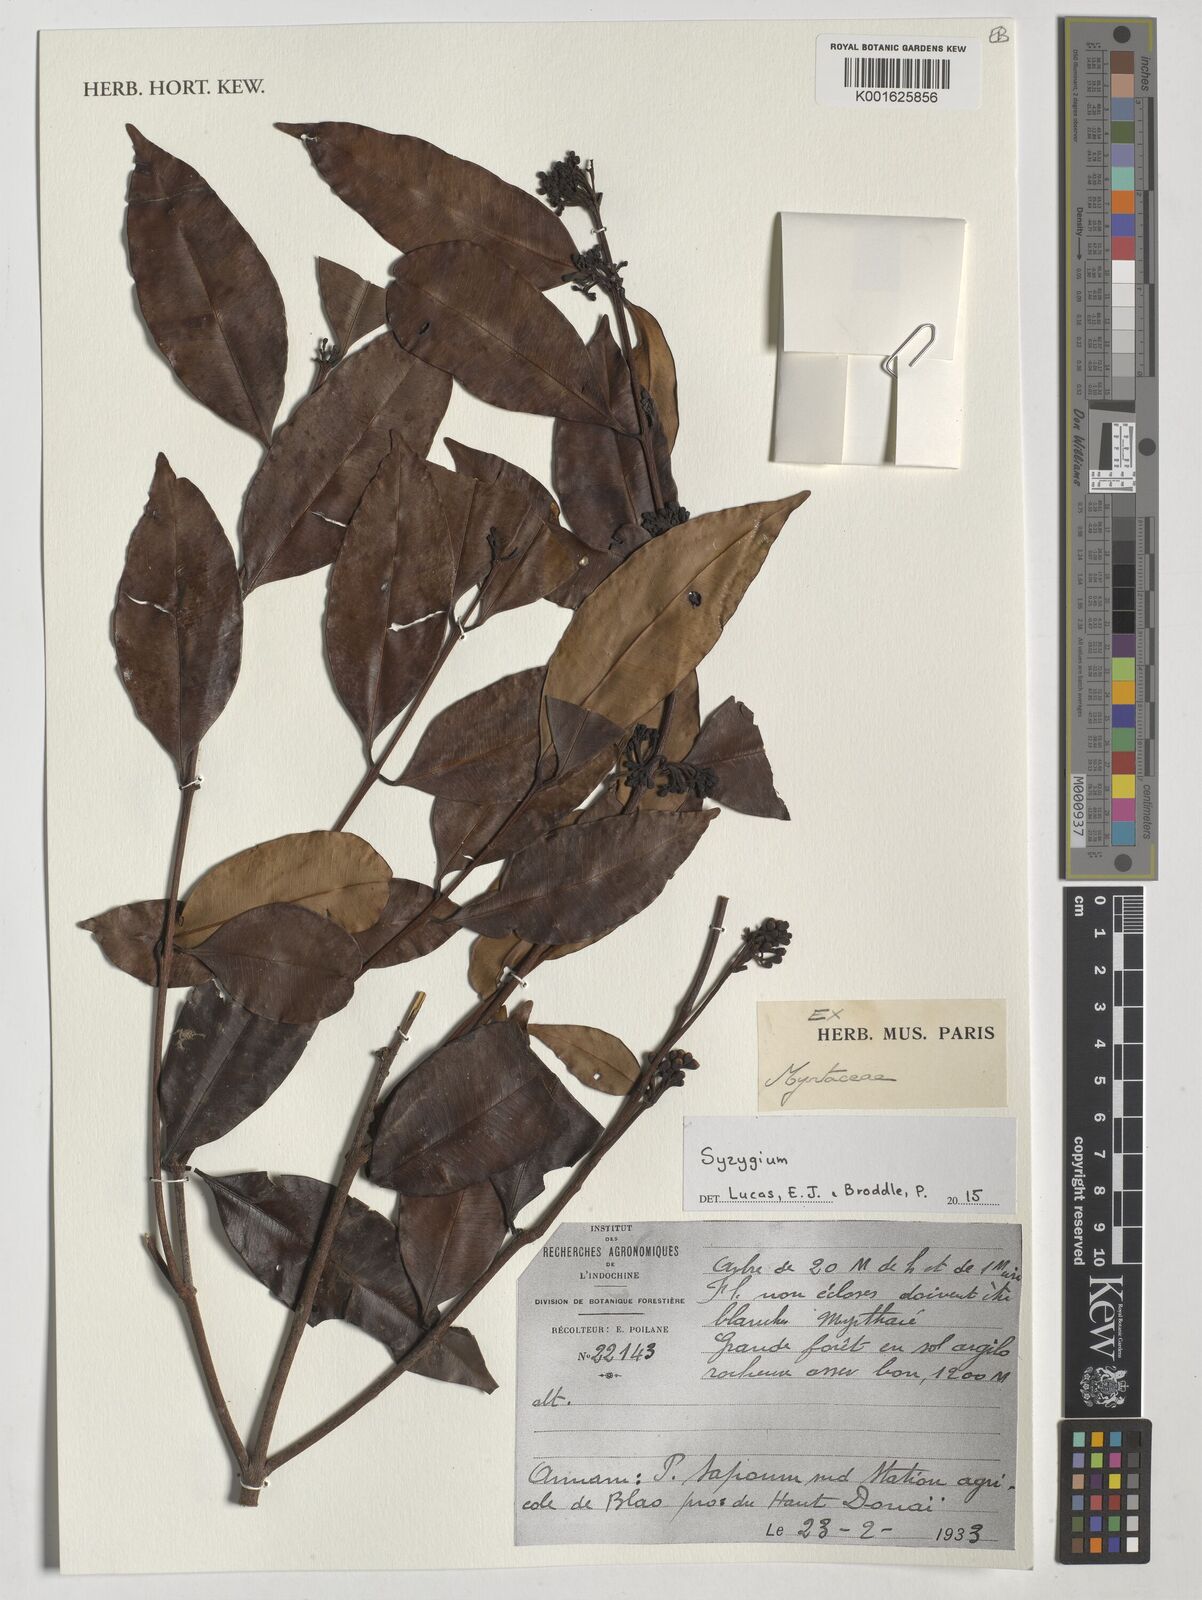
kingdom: Plantae
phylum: Tracheophyta
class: Magnoliopsida
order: Myrtales
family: Myrtaceae
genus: Syzygium
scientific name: Syzygium
